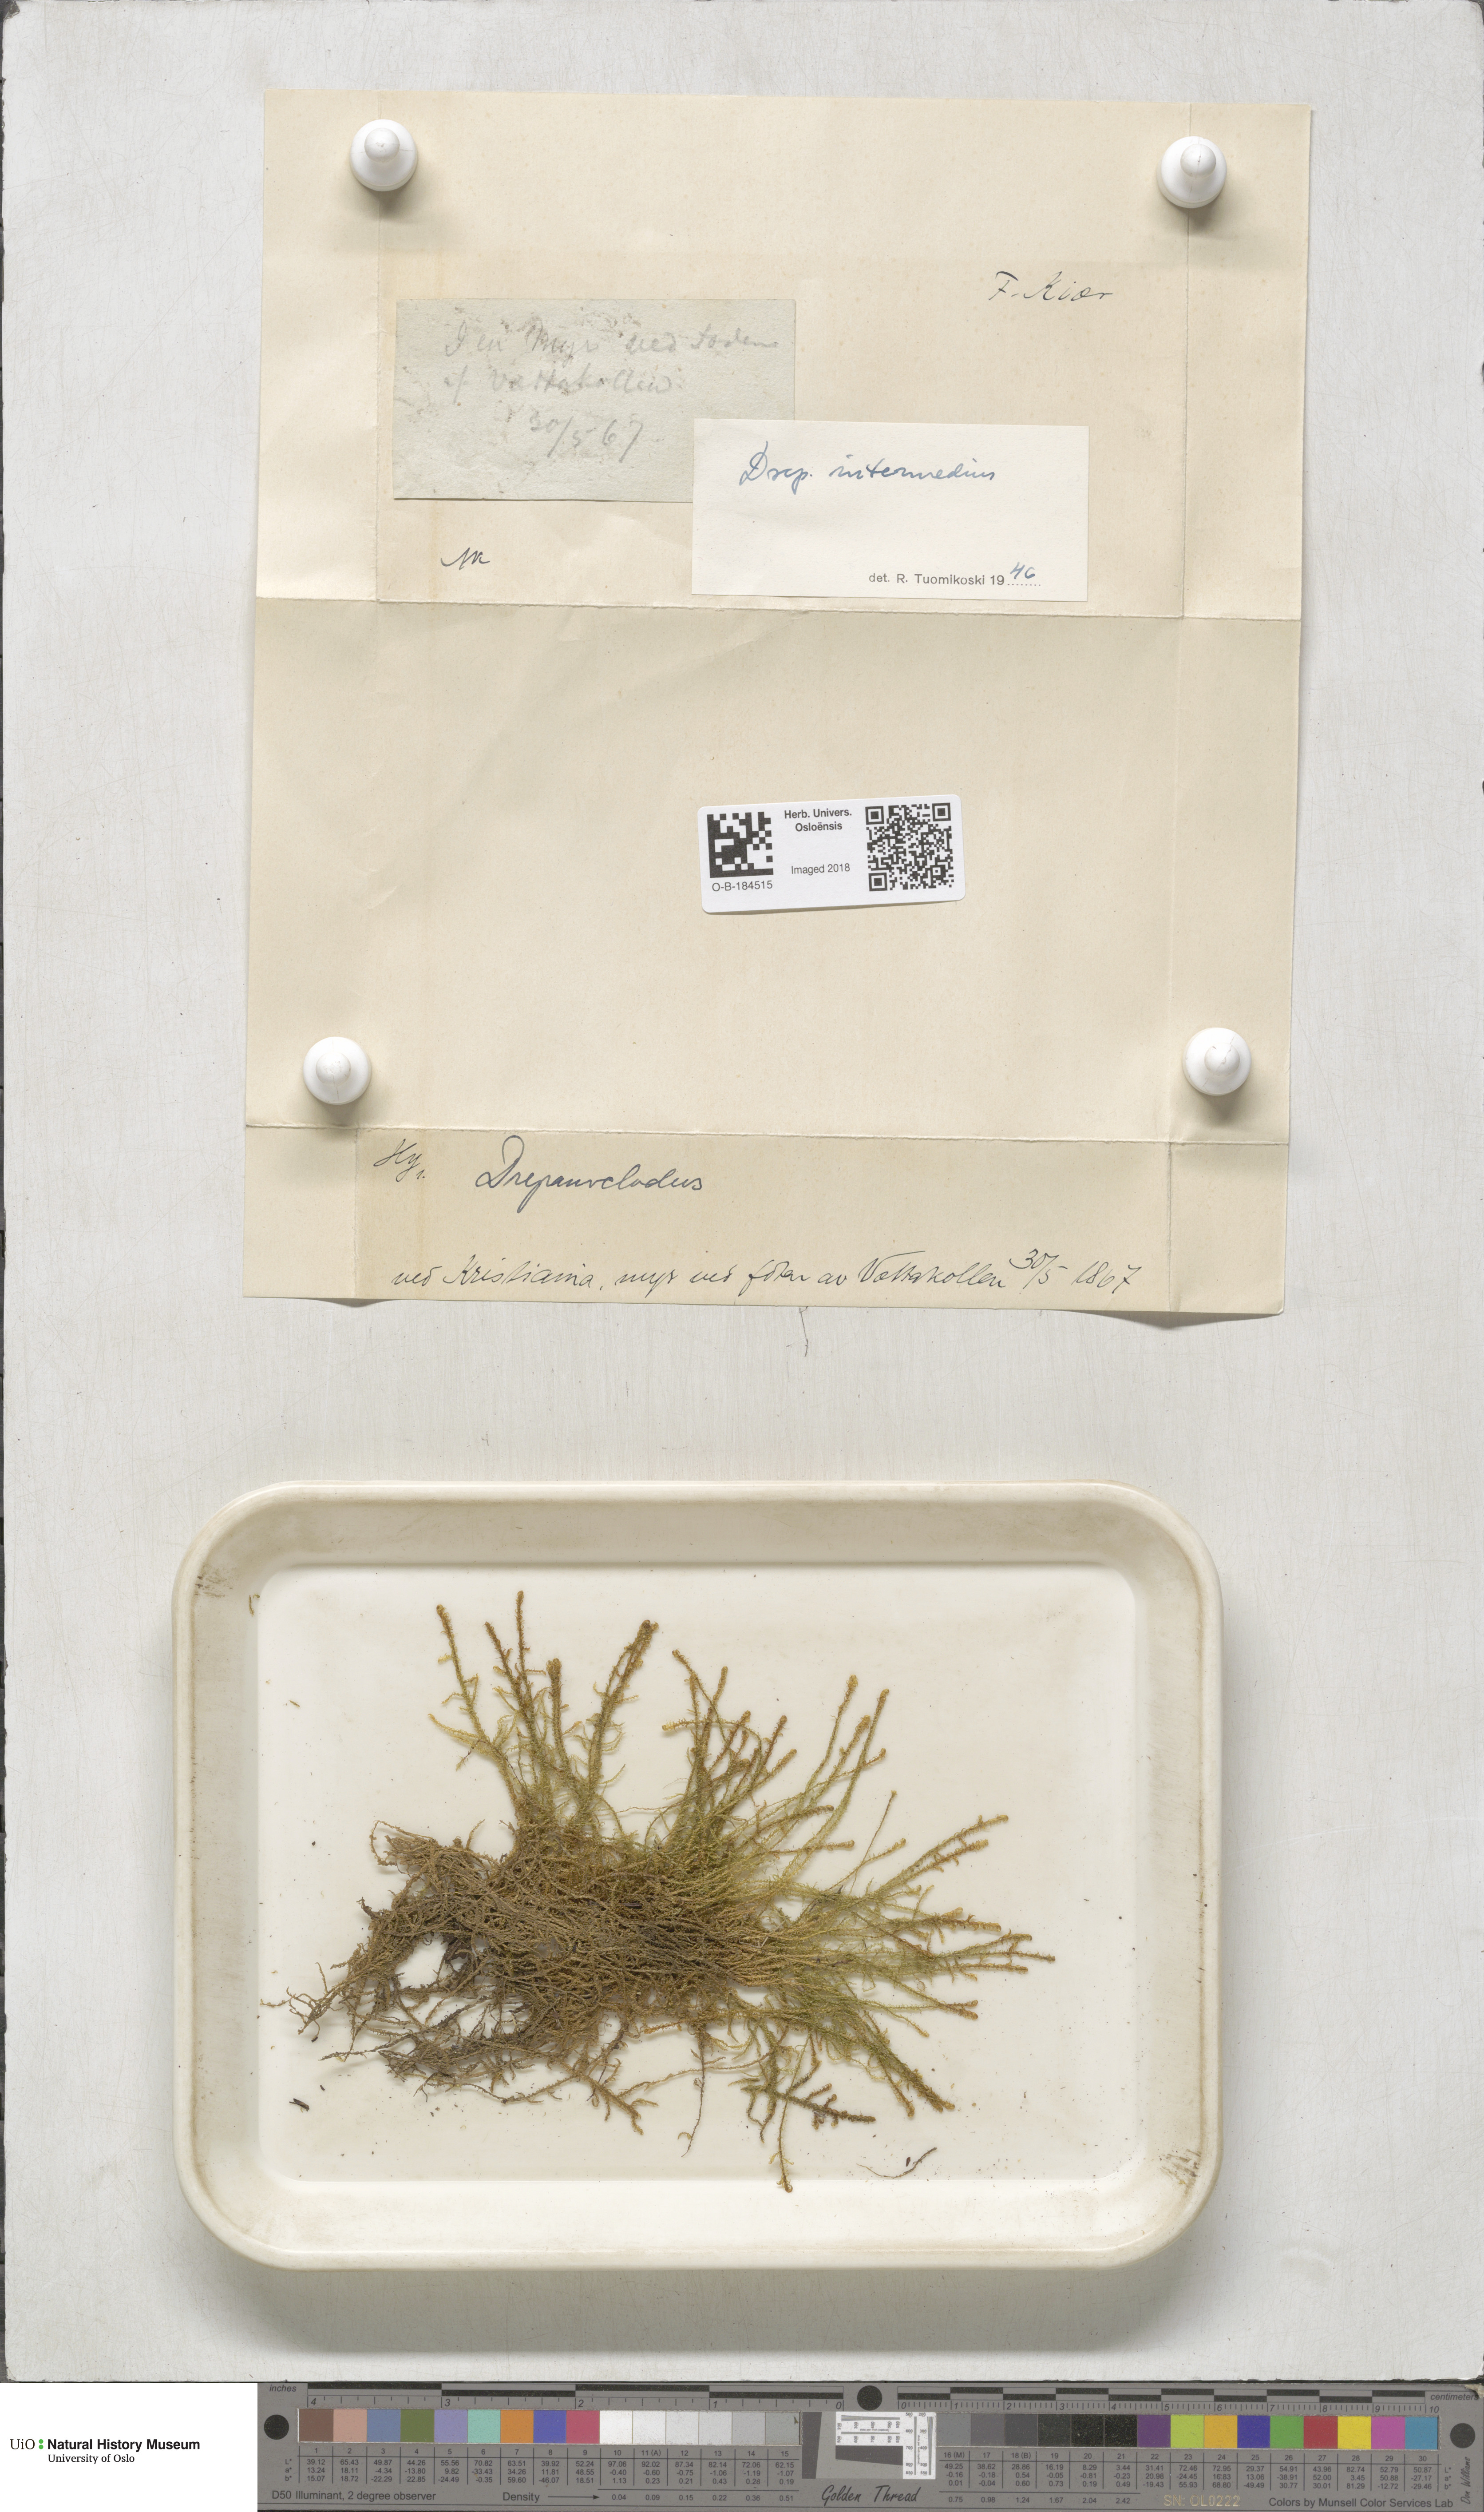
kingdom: Plantae
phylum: Bryophyta
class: Bryopsida
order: Hypnales
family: Scorpidiaceae
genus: Scorpidium
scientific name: Scorpidium cossonii
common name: Cosson's hook moss
